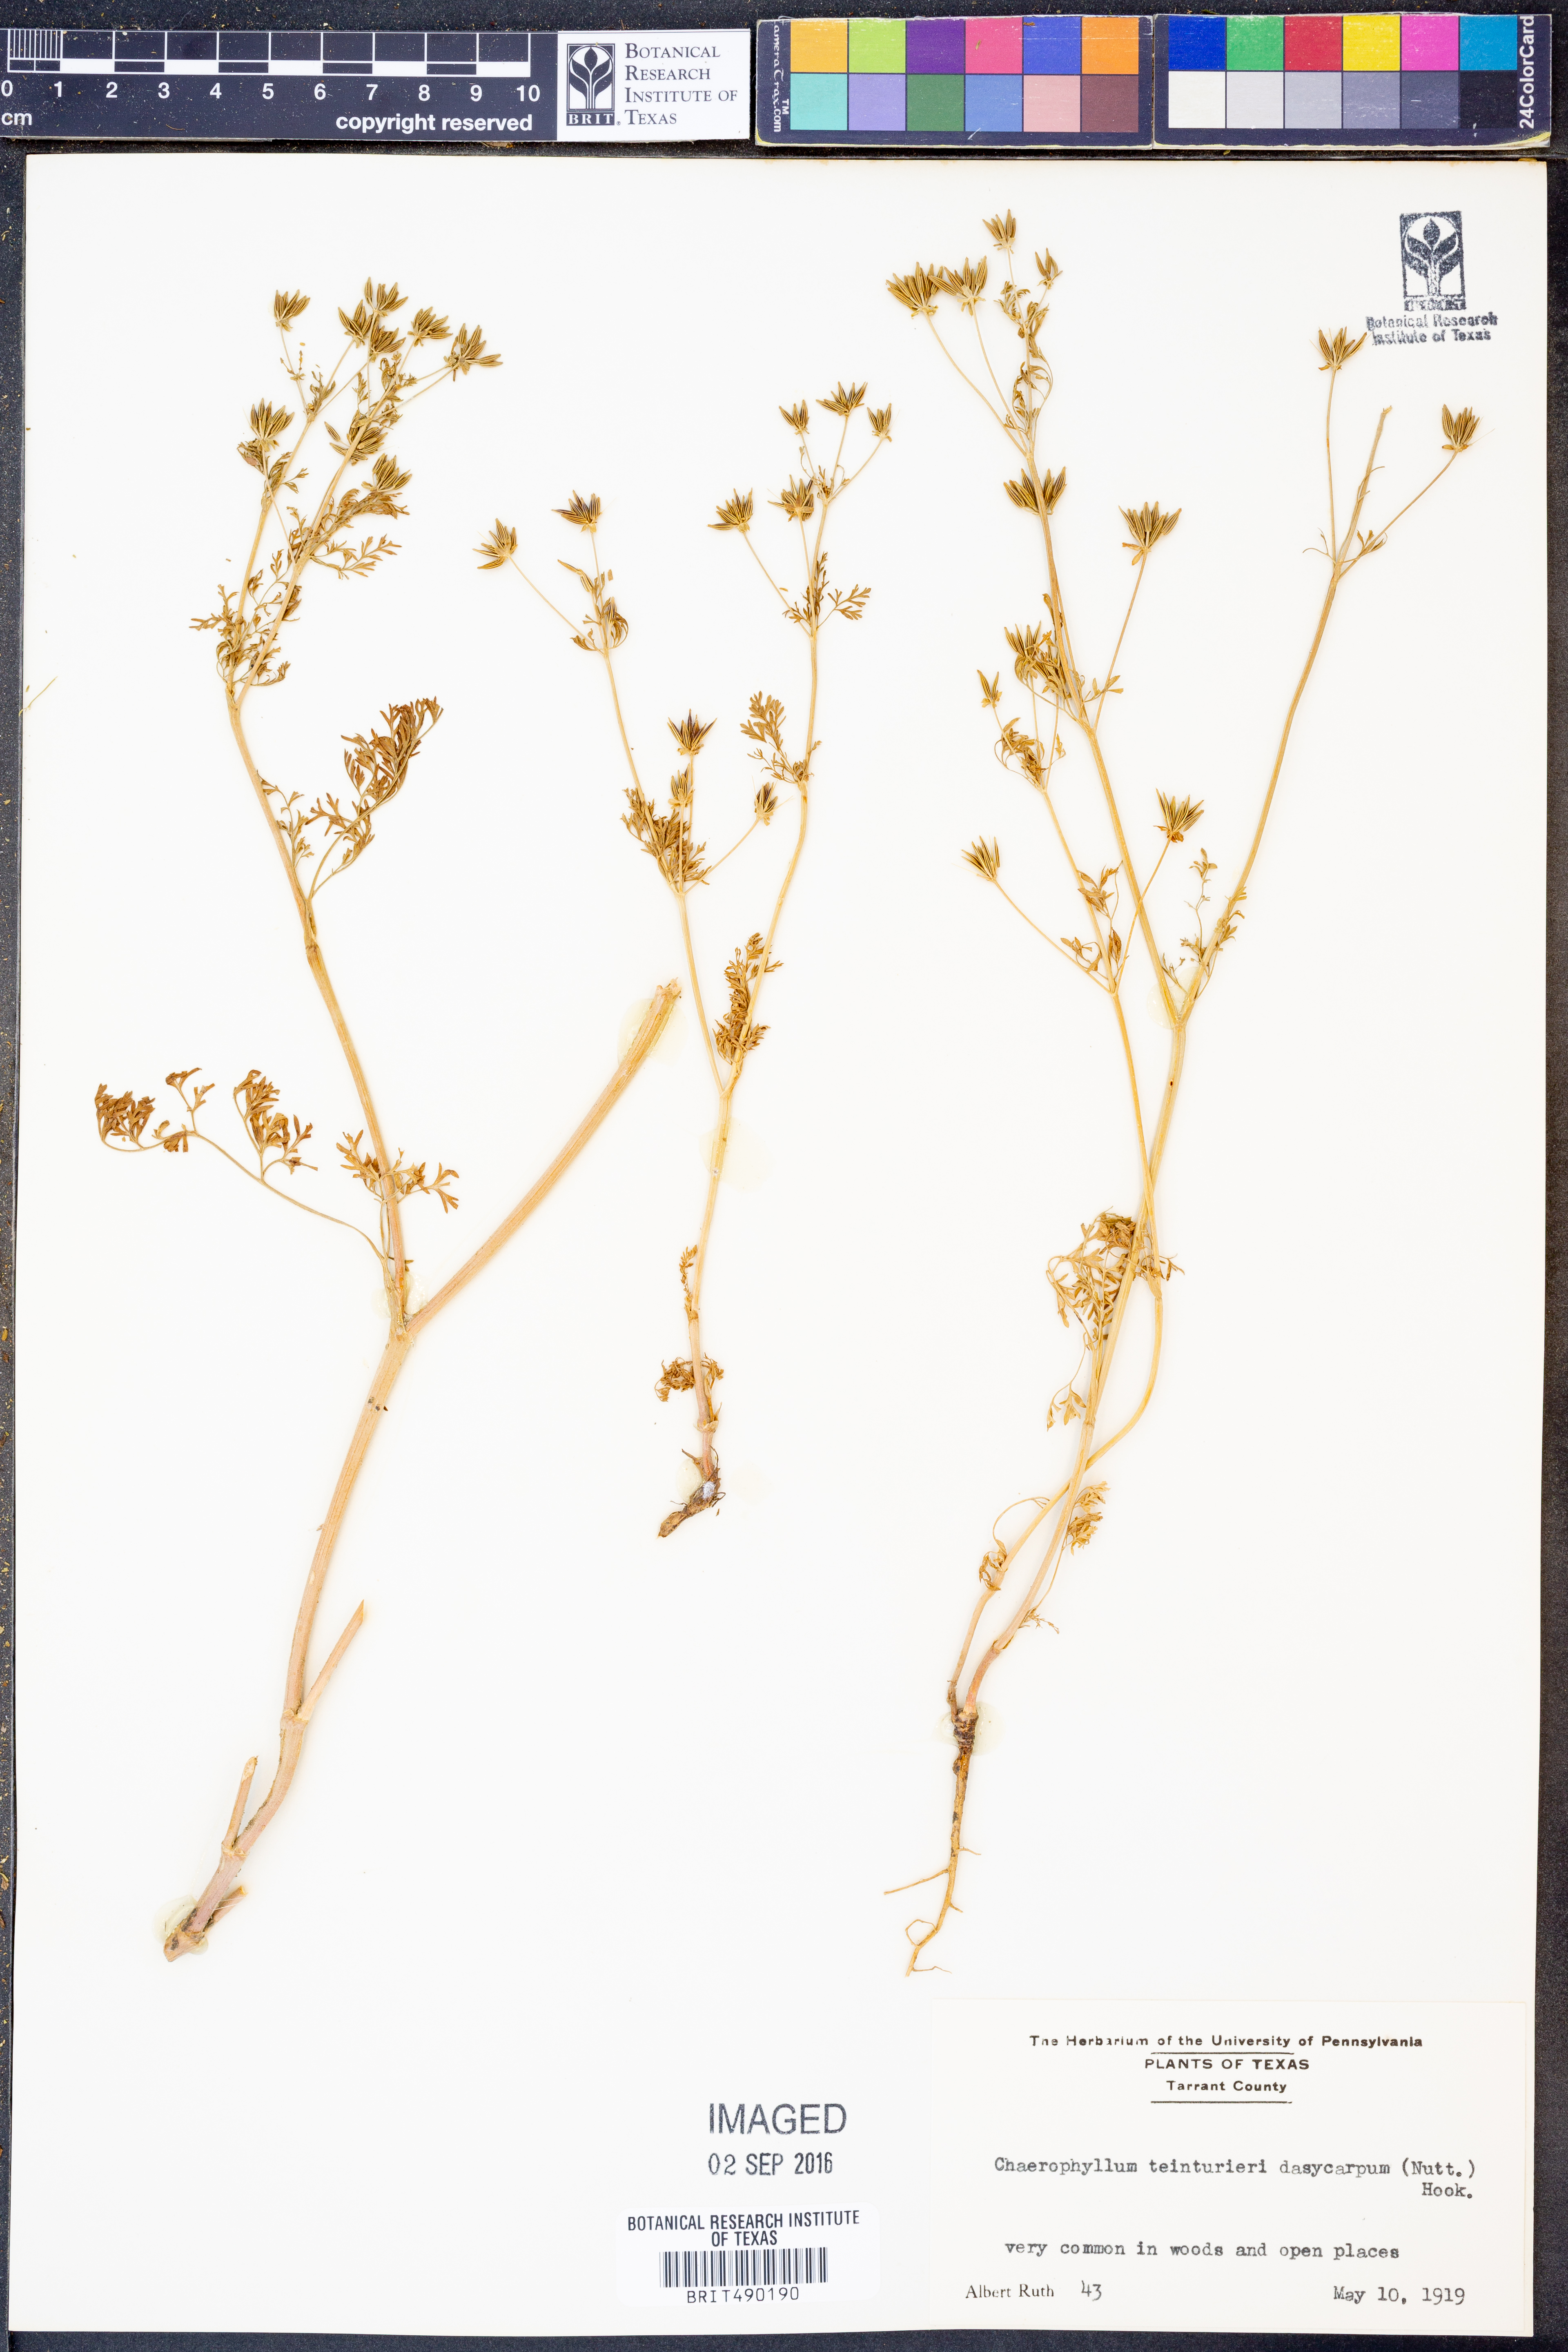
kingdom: Plantae
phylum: Tracheophyta
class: Magnoliopsida
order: Apiales
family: Apiaceae
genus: Chaerophyllum
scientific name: Chaerophyllum dasycarpum
